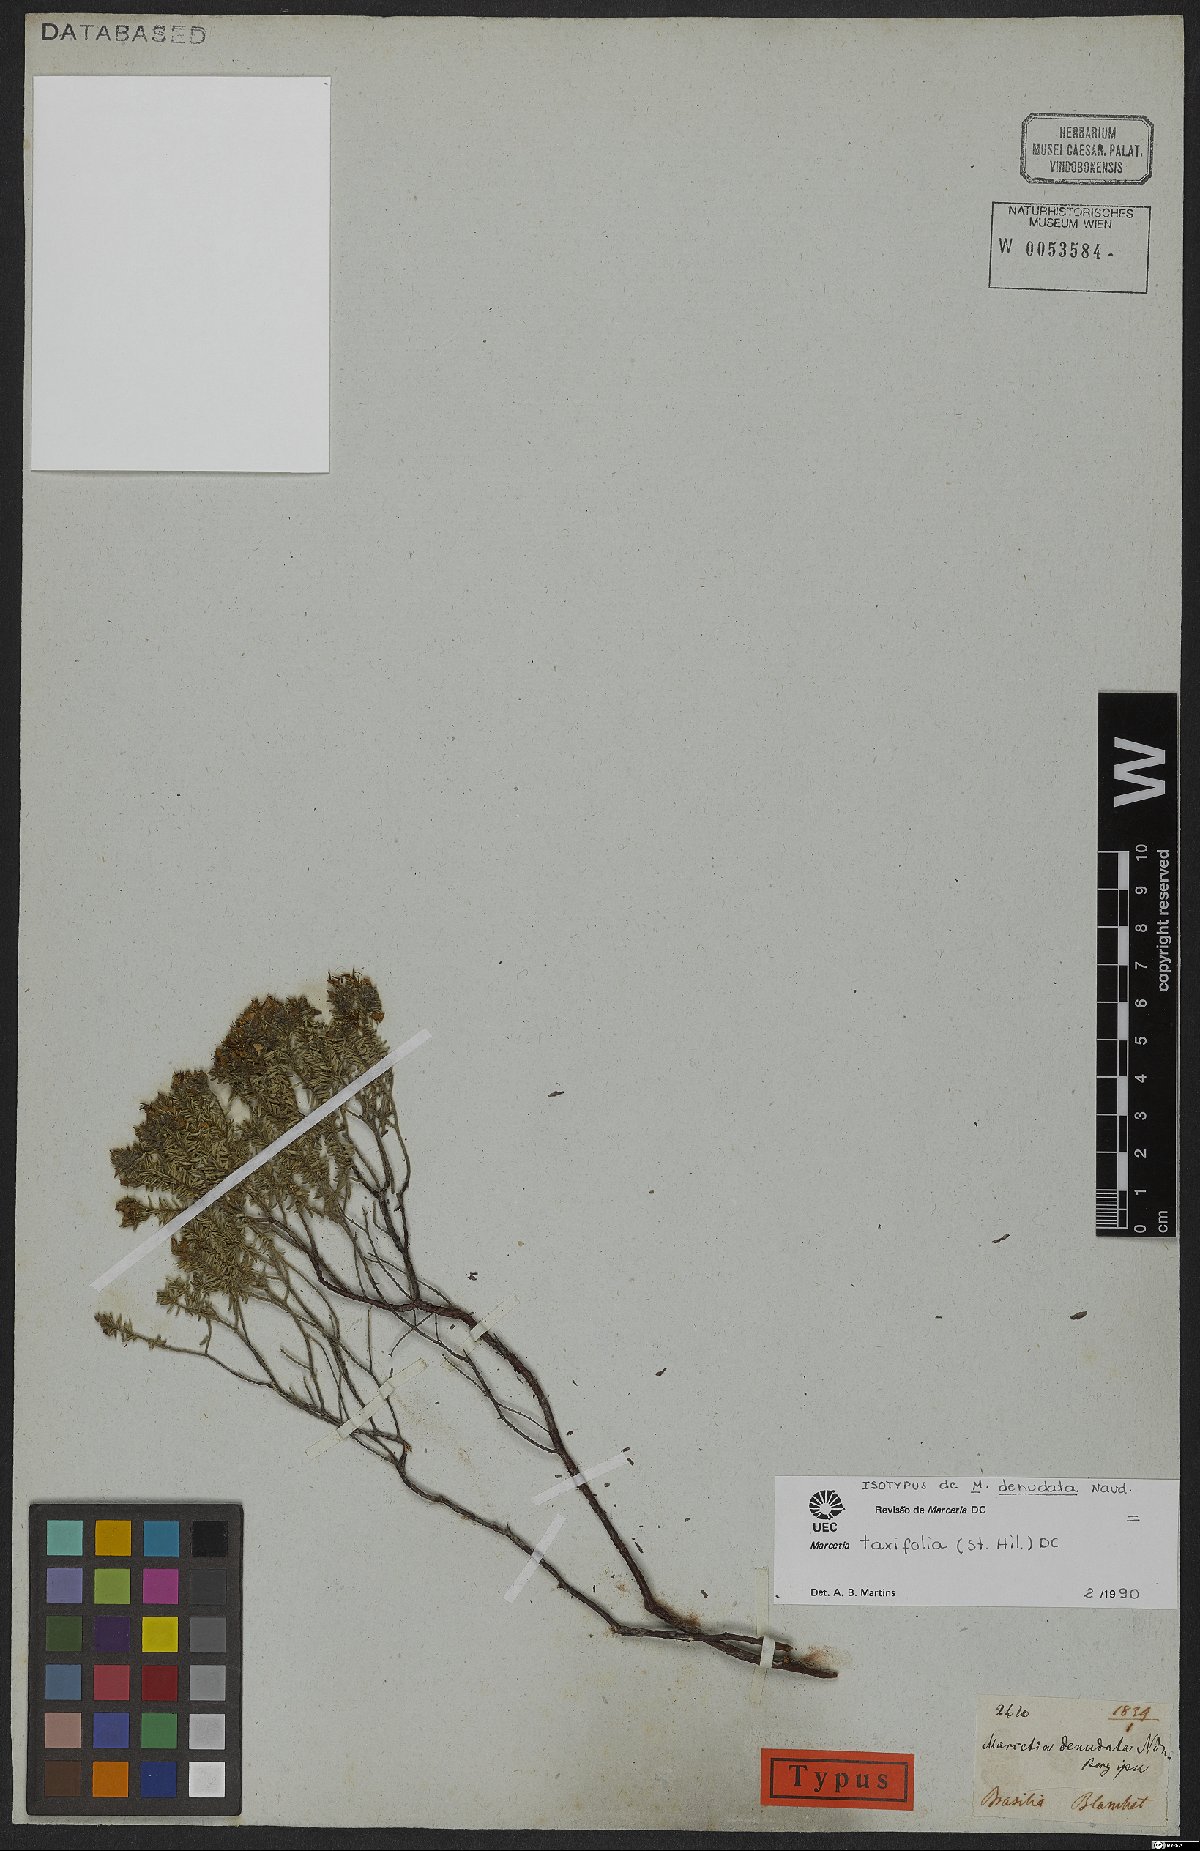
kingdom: Plantae
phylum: Tracheophyta
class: Magnoliopsida
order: Myrtales
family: Melastomataceae
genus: Marcetia
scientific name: Marcetia taxifolia
